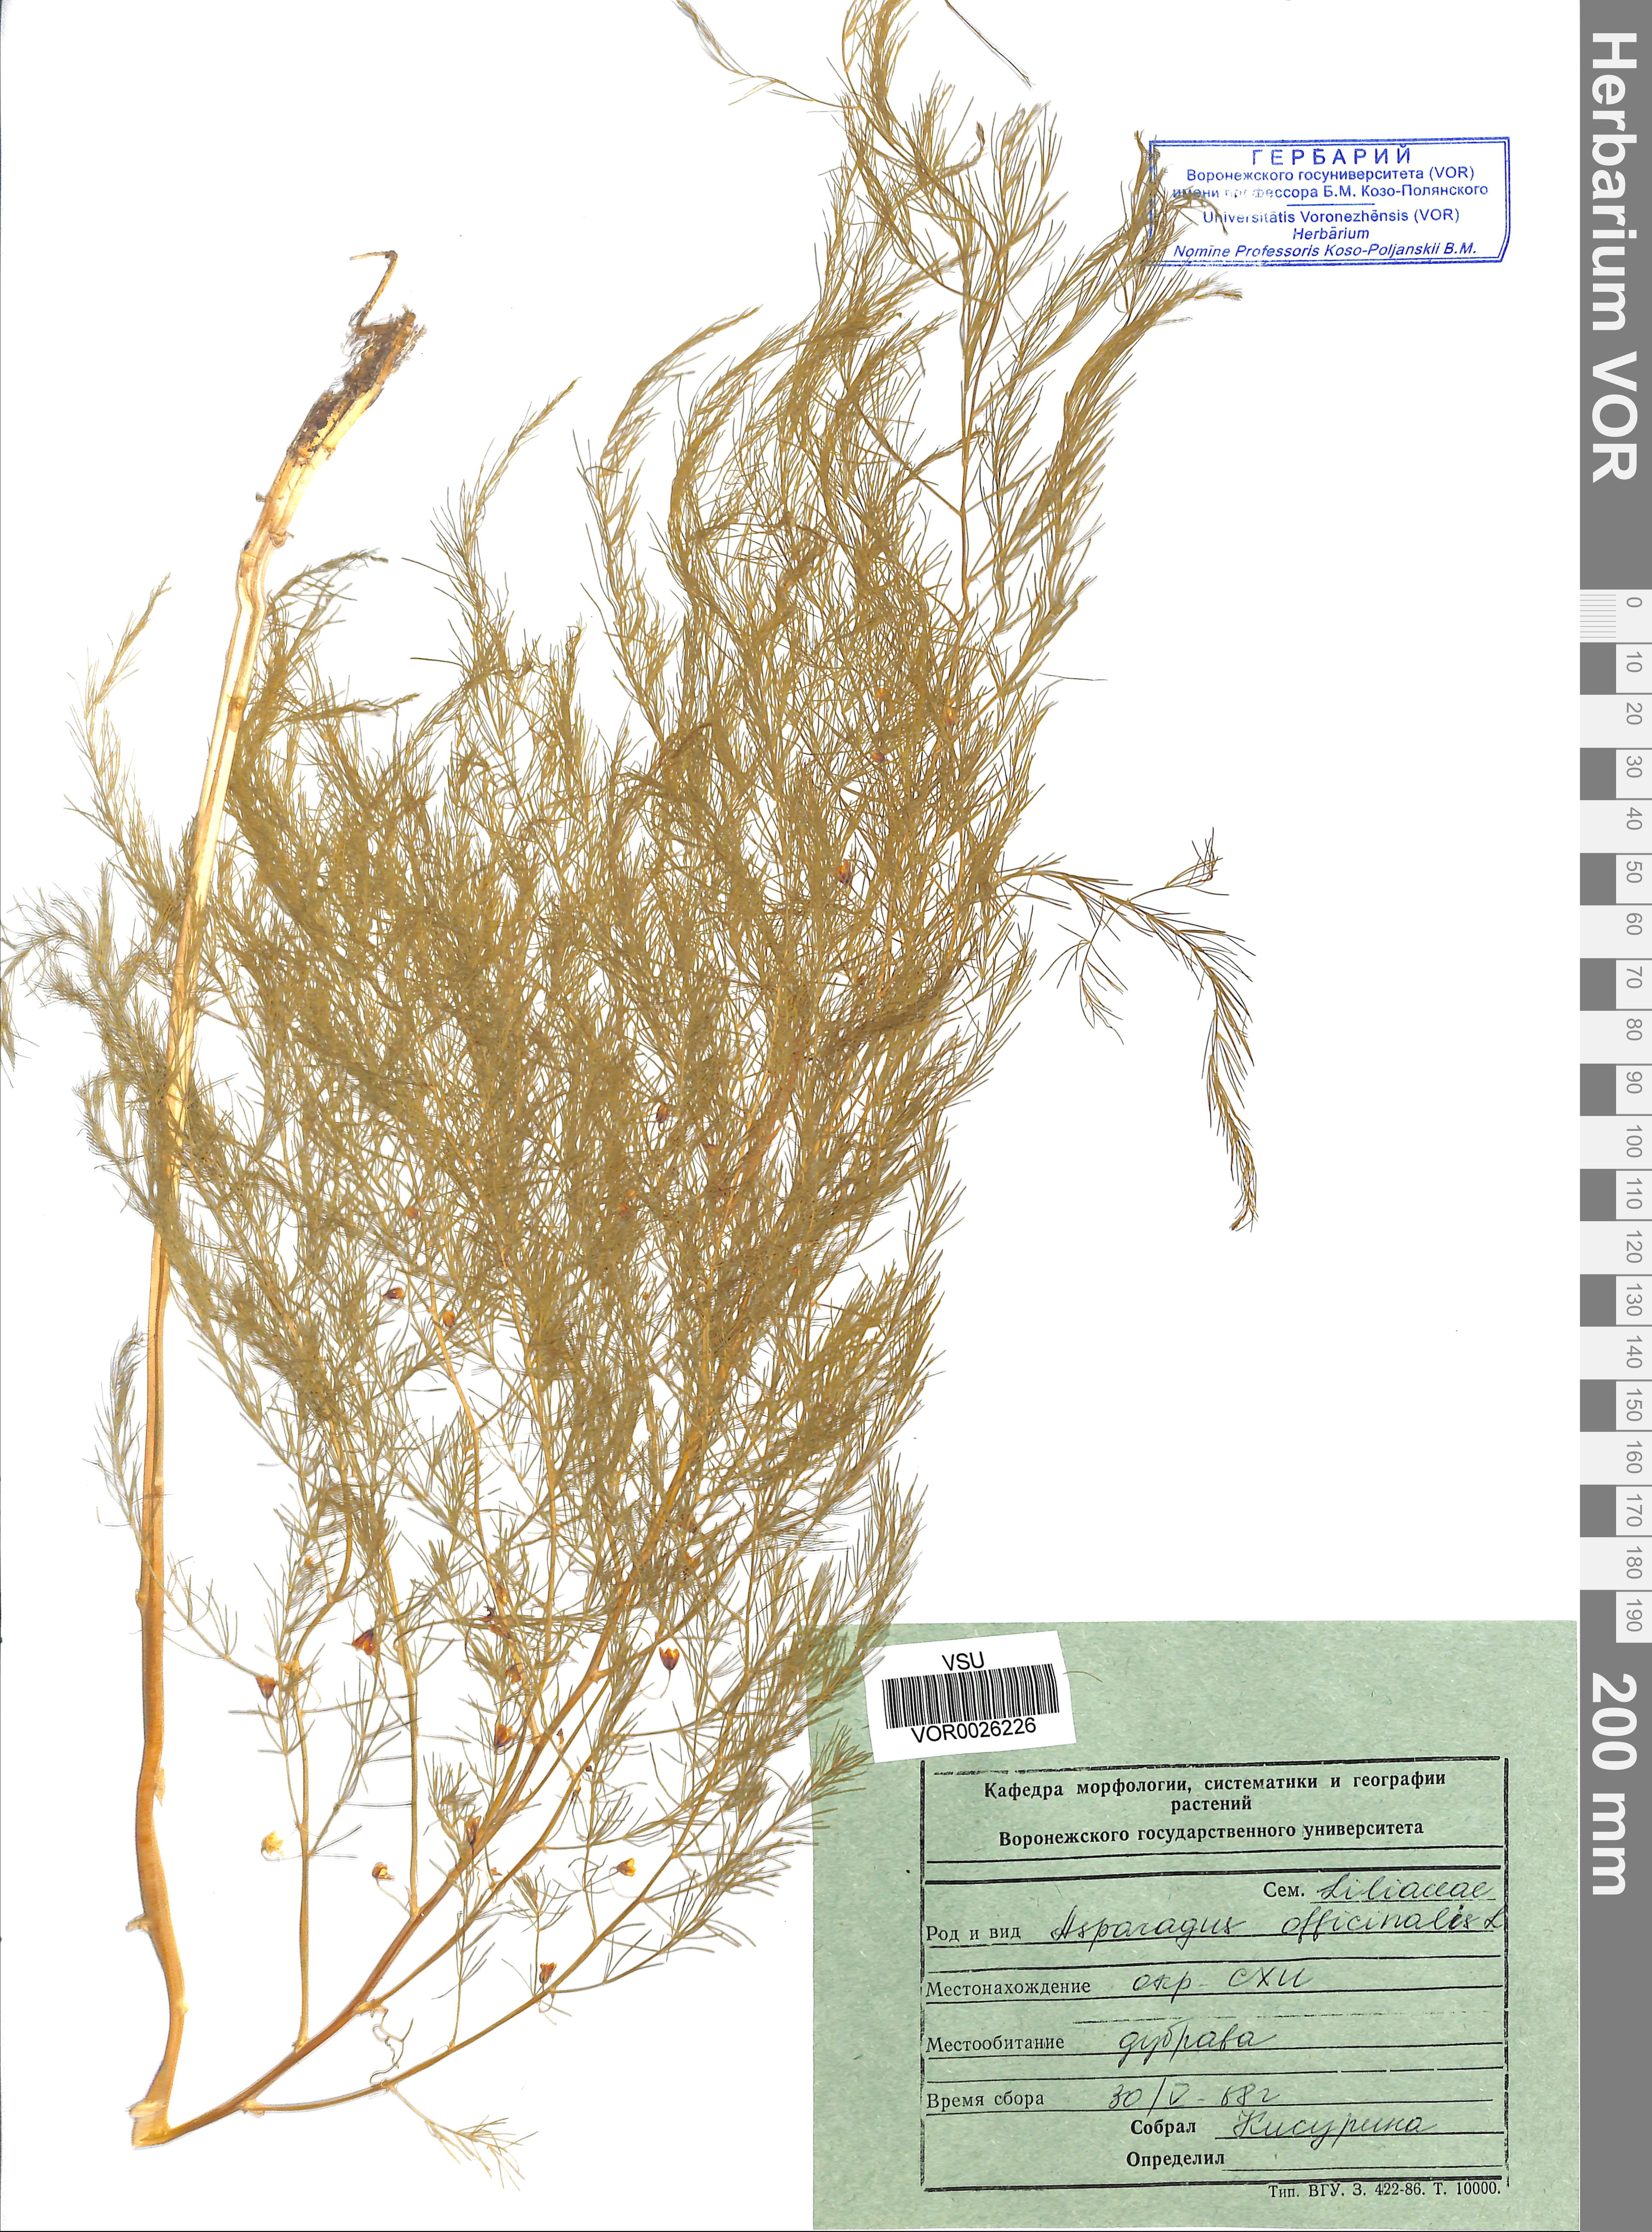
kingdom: Plantae
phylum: Tracheophyta
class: Liliopsida
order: Asparagales
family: Asparagaceae
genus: Asparagus
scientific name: Asparagus officinalis
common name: Garden asparagus
